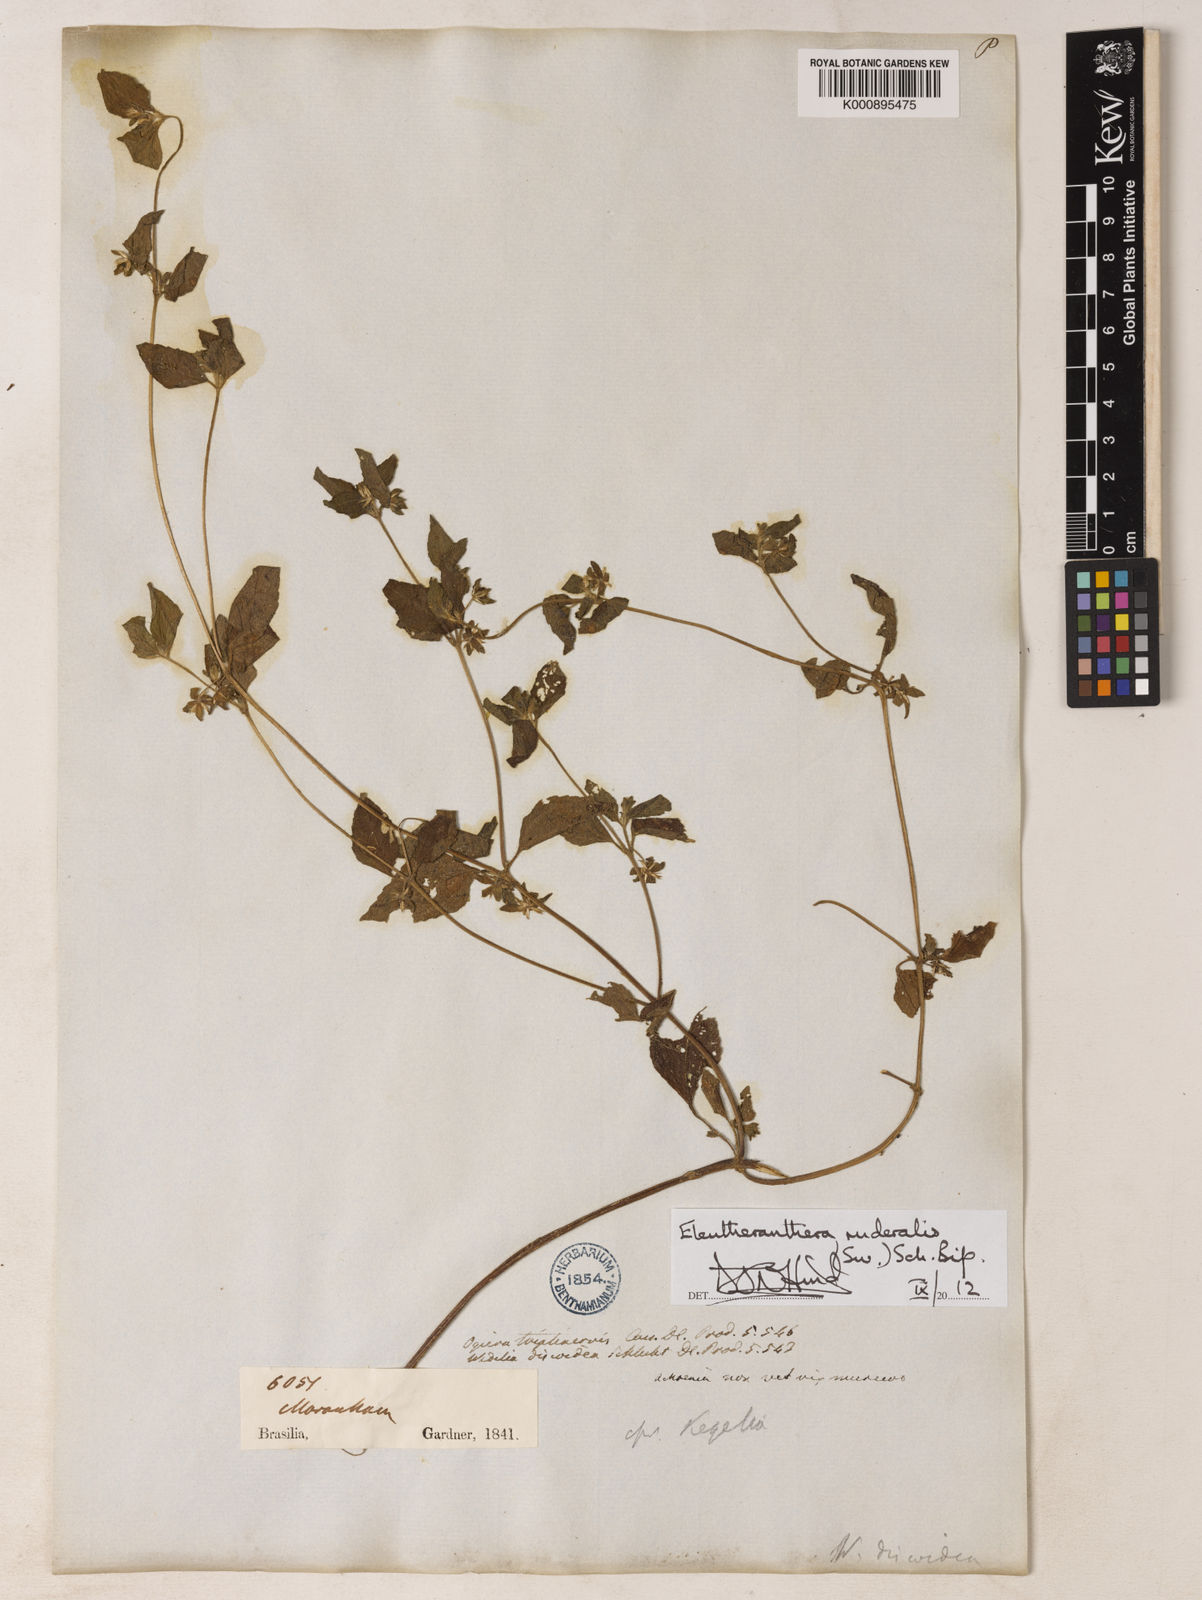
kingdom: Plantae
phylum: Tracheophyta
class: Magnoliopsida
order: Asterales
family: Asteraceae
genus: Eleutheranthera
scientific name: Eleutheranthera ruderalis
